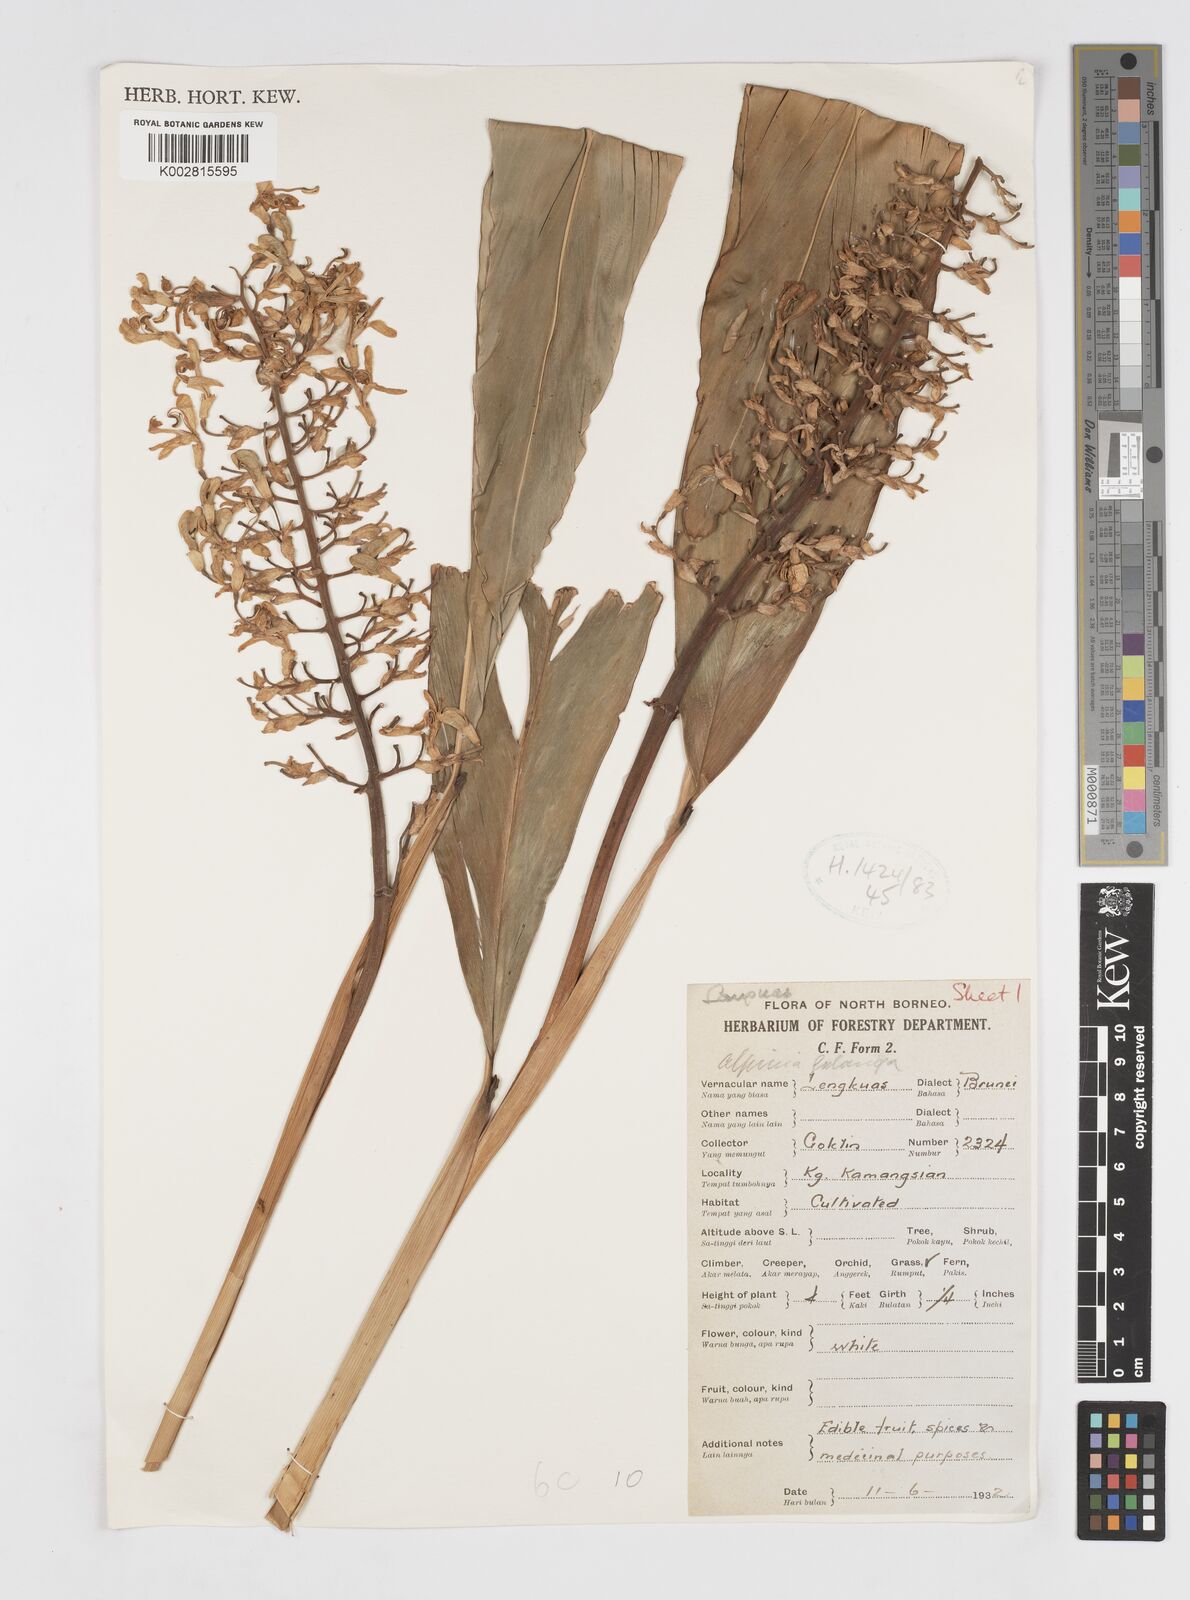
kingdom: Plantae
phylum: Tracheophyta
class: Liliopsida
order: Zingiberales
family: Zingiberaceae
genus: Alpinia
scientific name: Alpinia galanga
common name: Siamese-ginger
